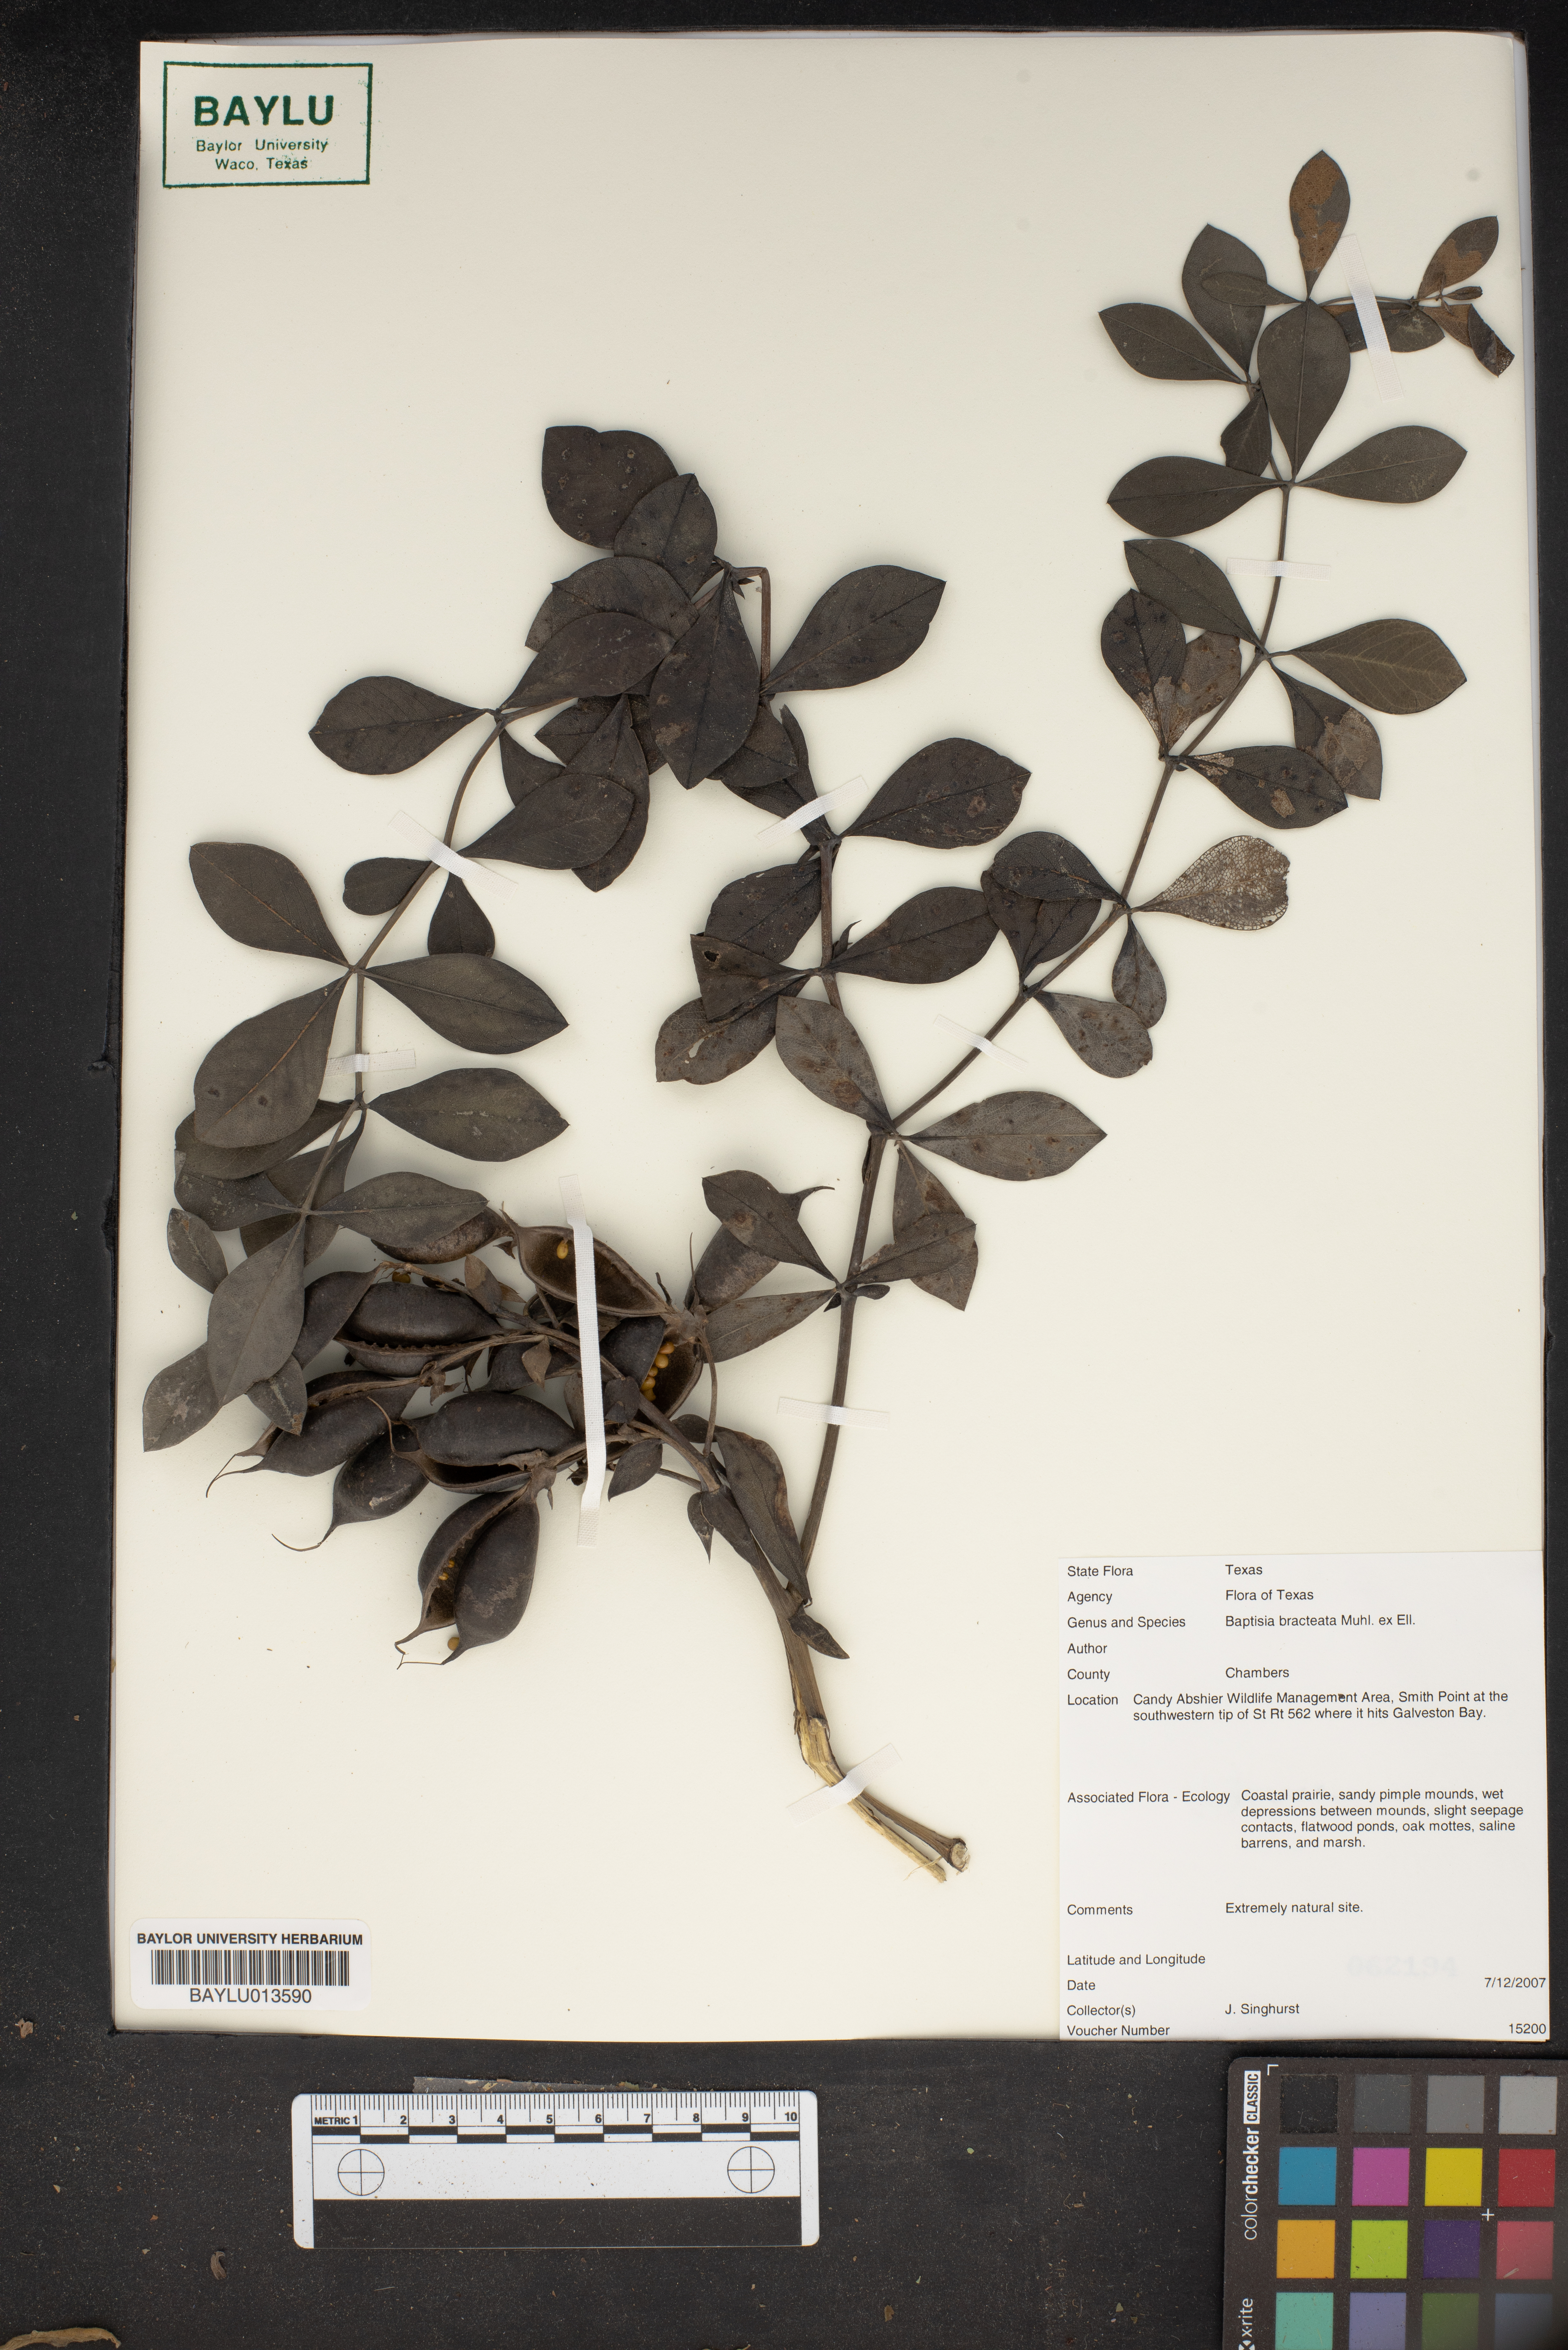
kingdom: Plantae
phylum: Tracheophyta
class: Magnoliopsida
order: Fabales
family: Fabaceae
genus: Baptisia
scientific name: Baptisia bracteata
